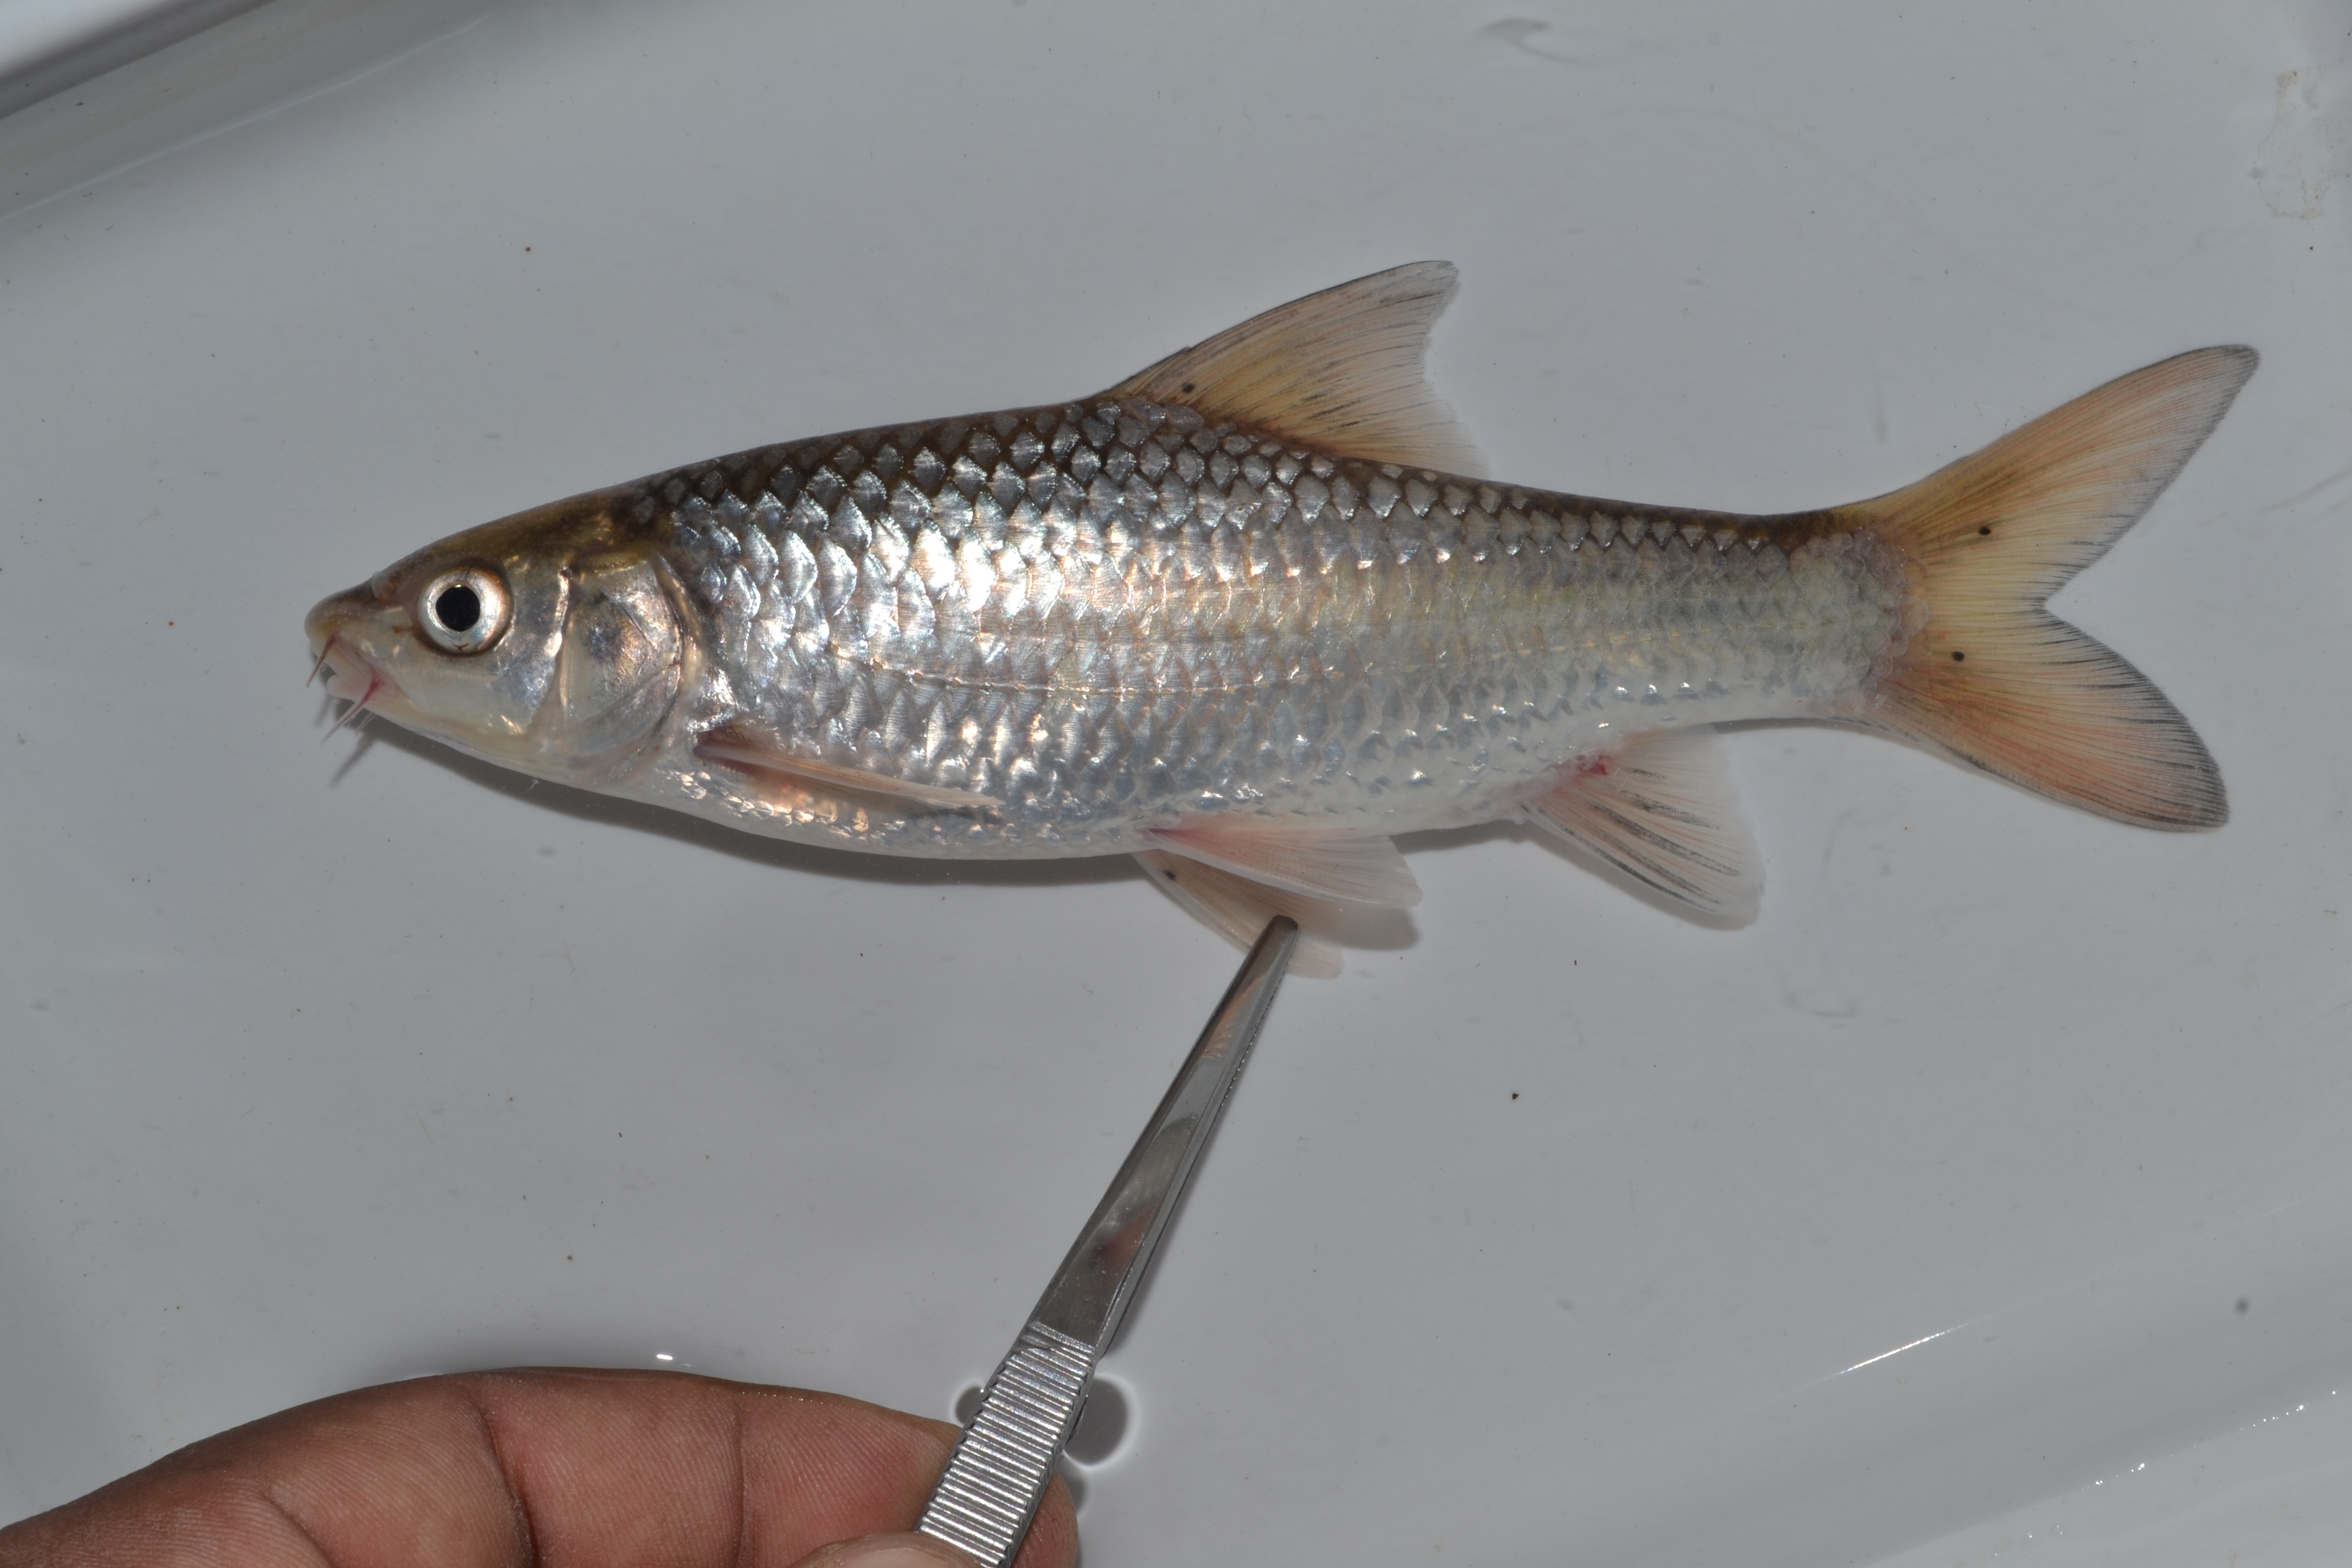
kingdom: Animalia
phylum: Chordata
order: Cypriniformes
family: Cyprinidae
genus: Labeobarbus
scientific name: Labeobarbus natalensis
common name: Scaly
